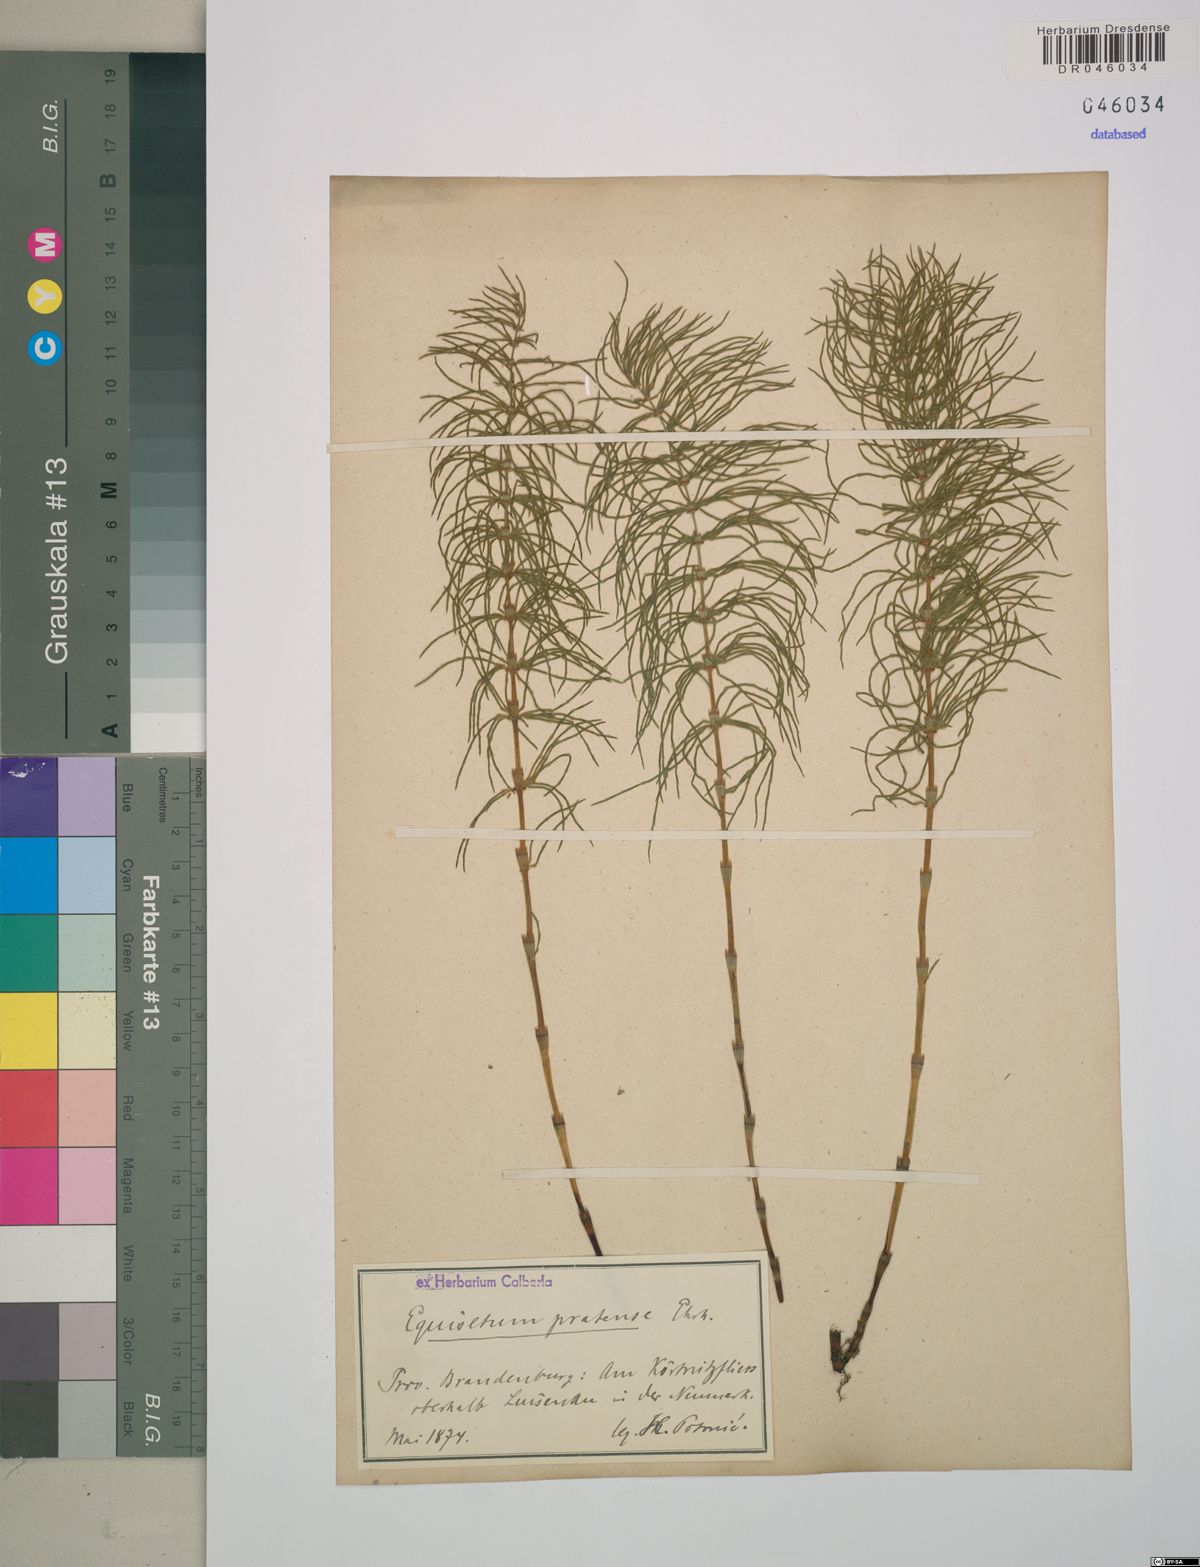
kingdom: Plantae
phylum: Tracheophyta
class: Polypodiopsida
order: Equisetales
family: Equisetaceae
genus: Equisetum
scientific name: Equisetum pratense
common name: Meadow horsetail
